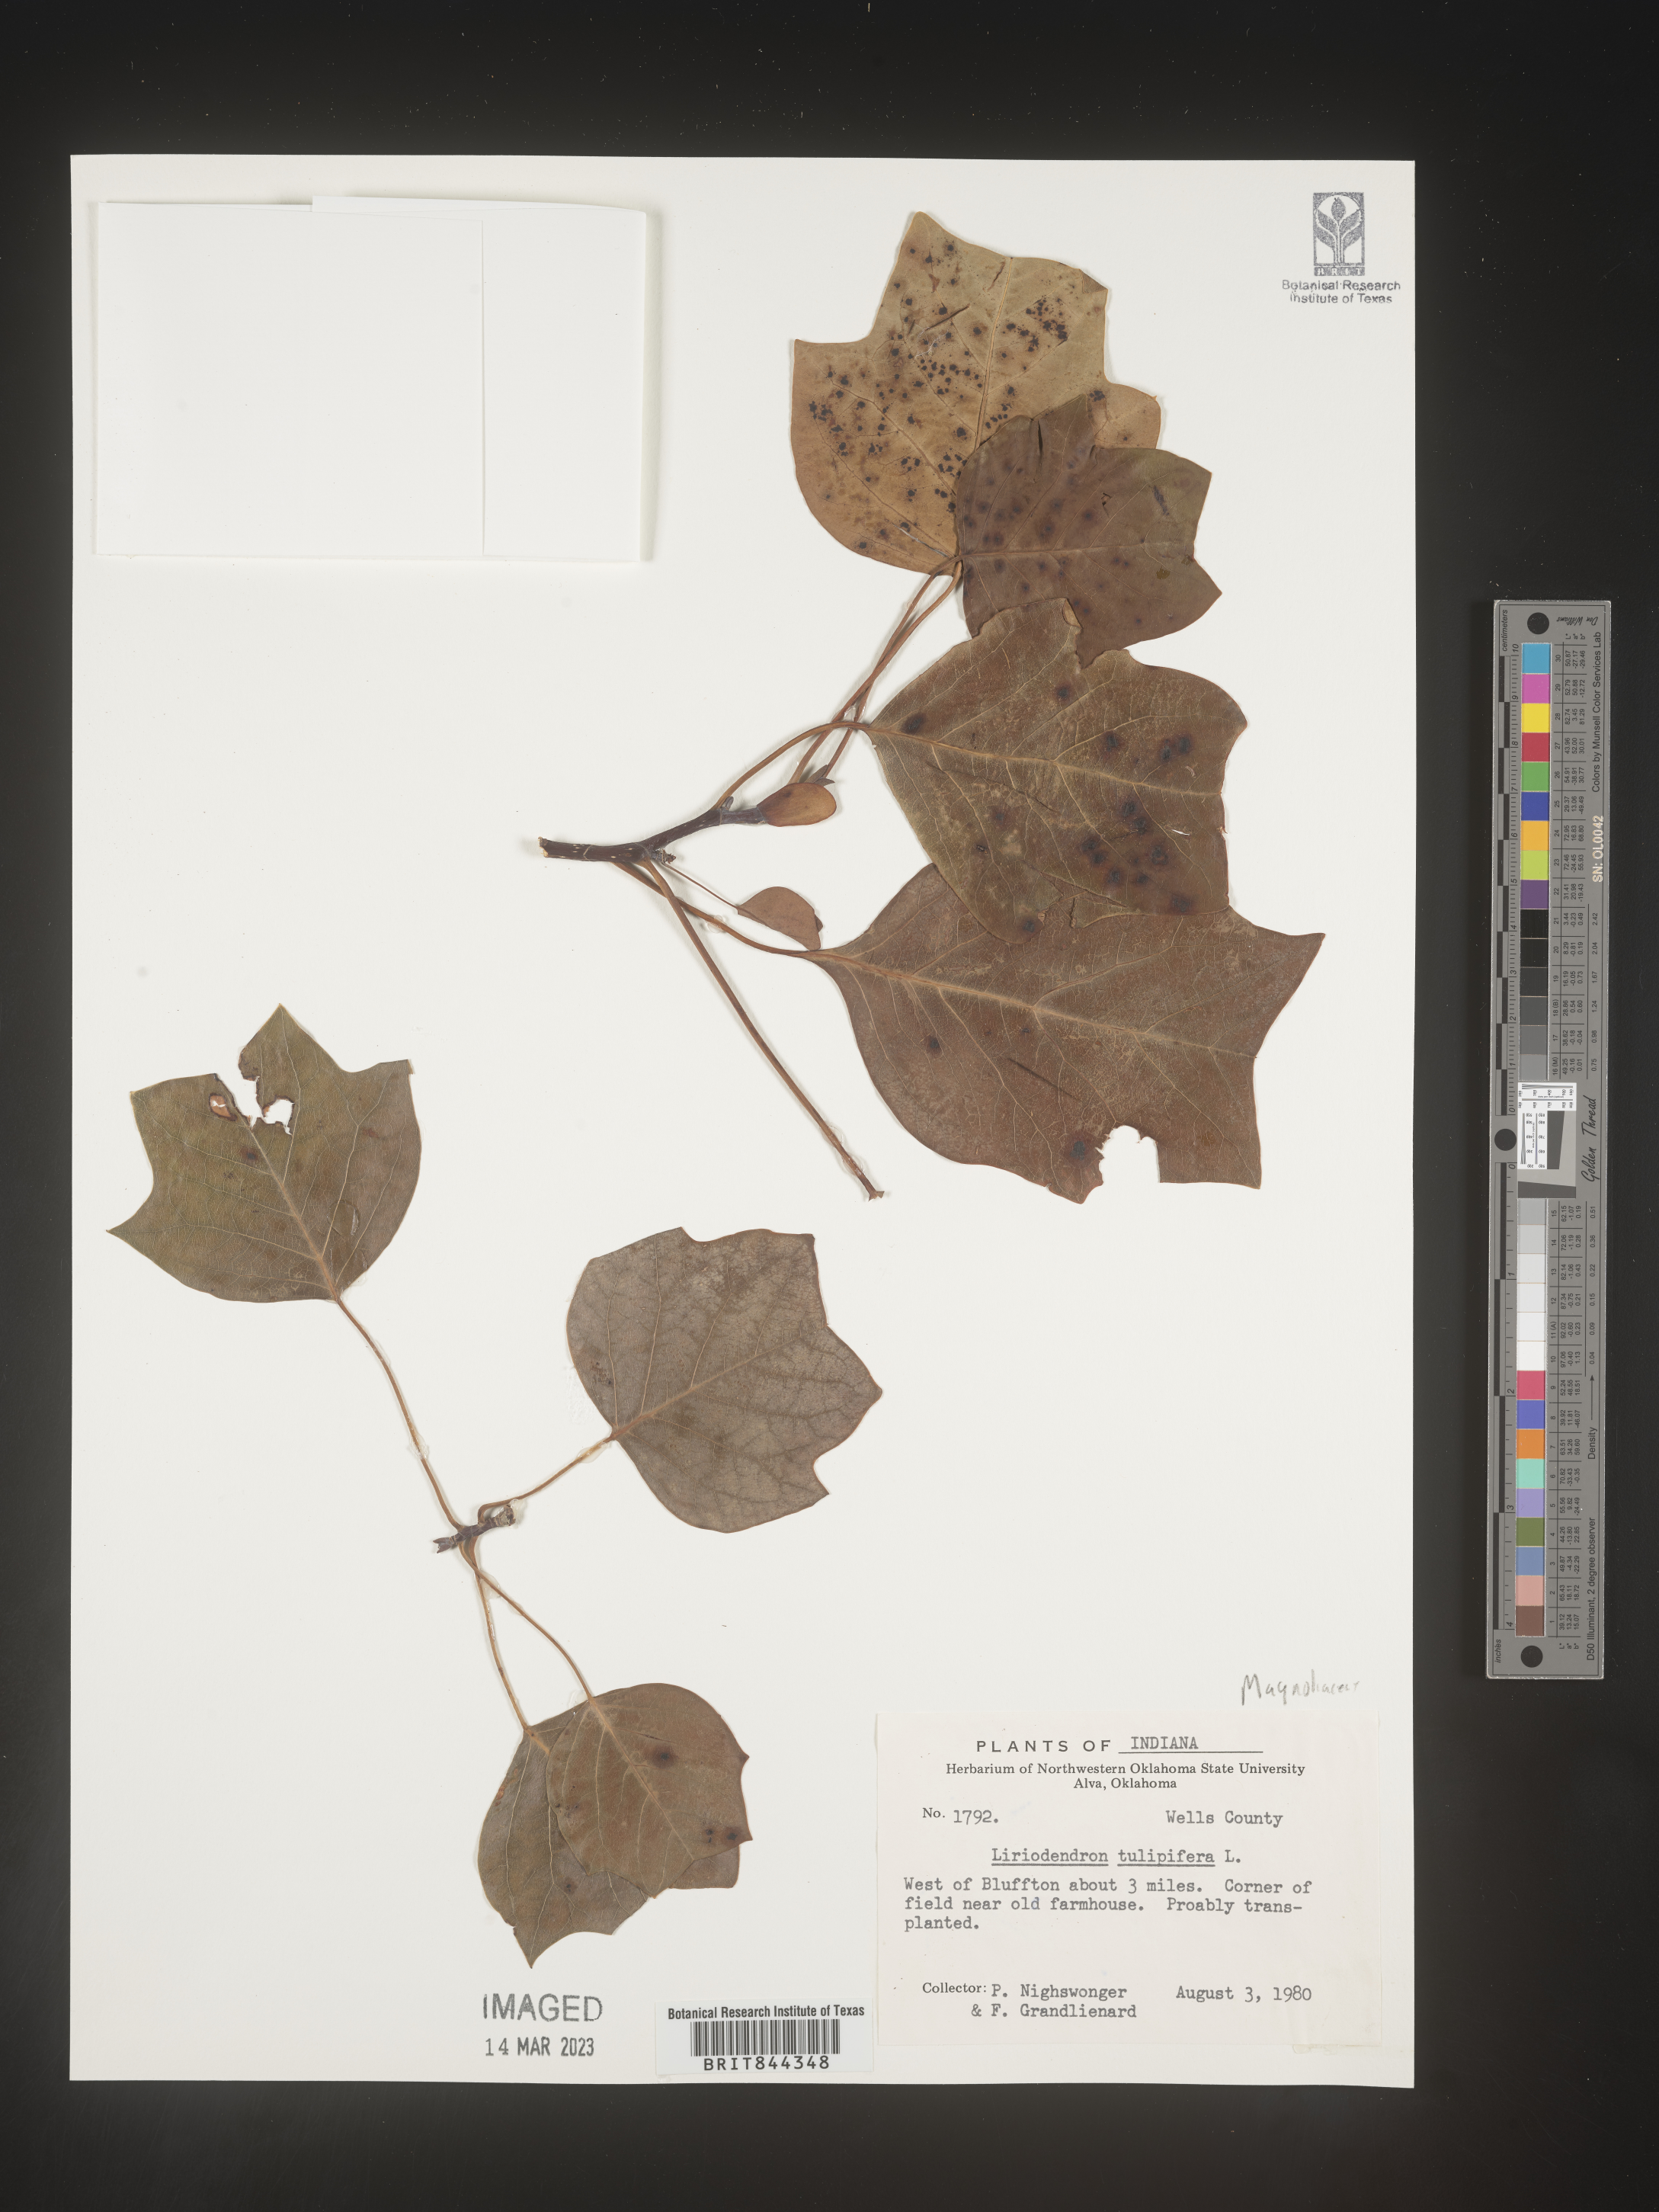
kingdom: Plantae
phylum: Tracheophyta
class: Magnoliopsida
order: Magnoliales
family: Magnoliaceae
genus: Liriodendron
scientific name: Liriodendron tulipifera
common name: Tulip tree
